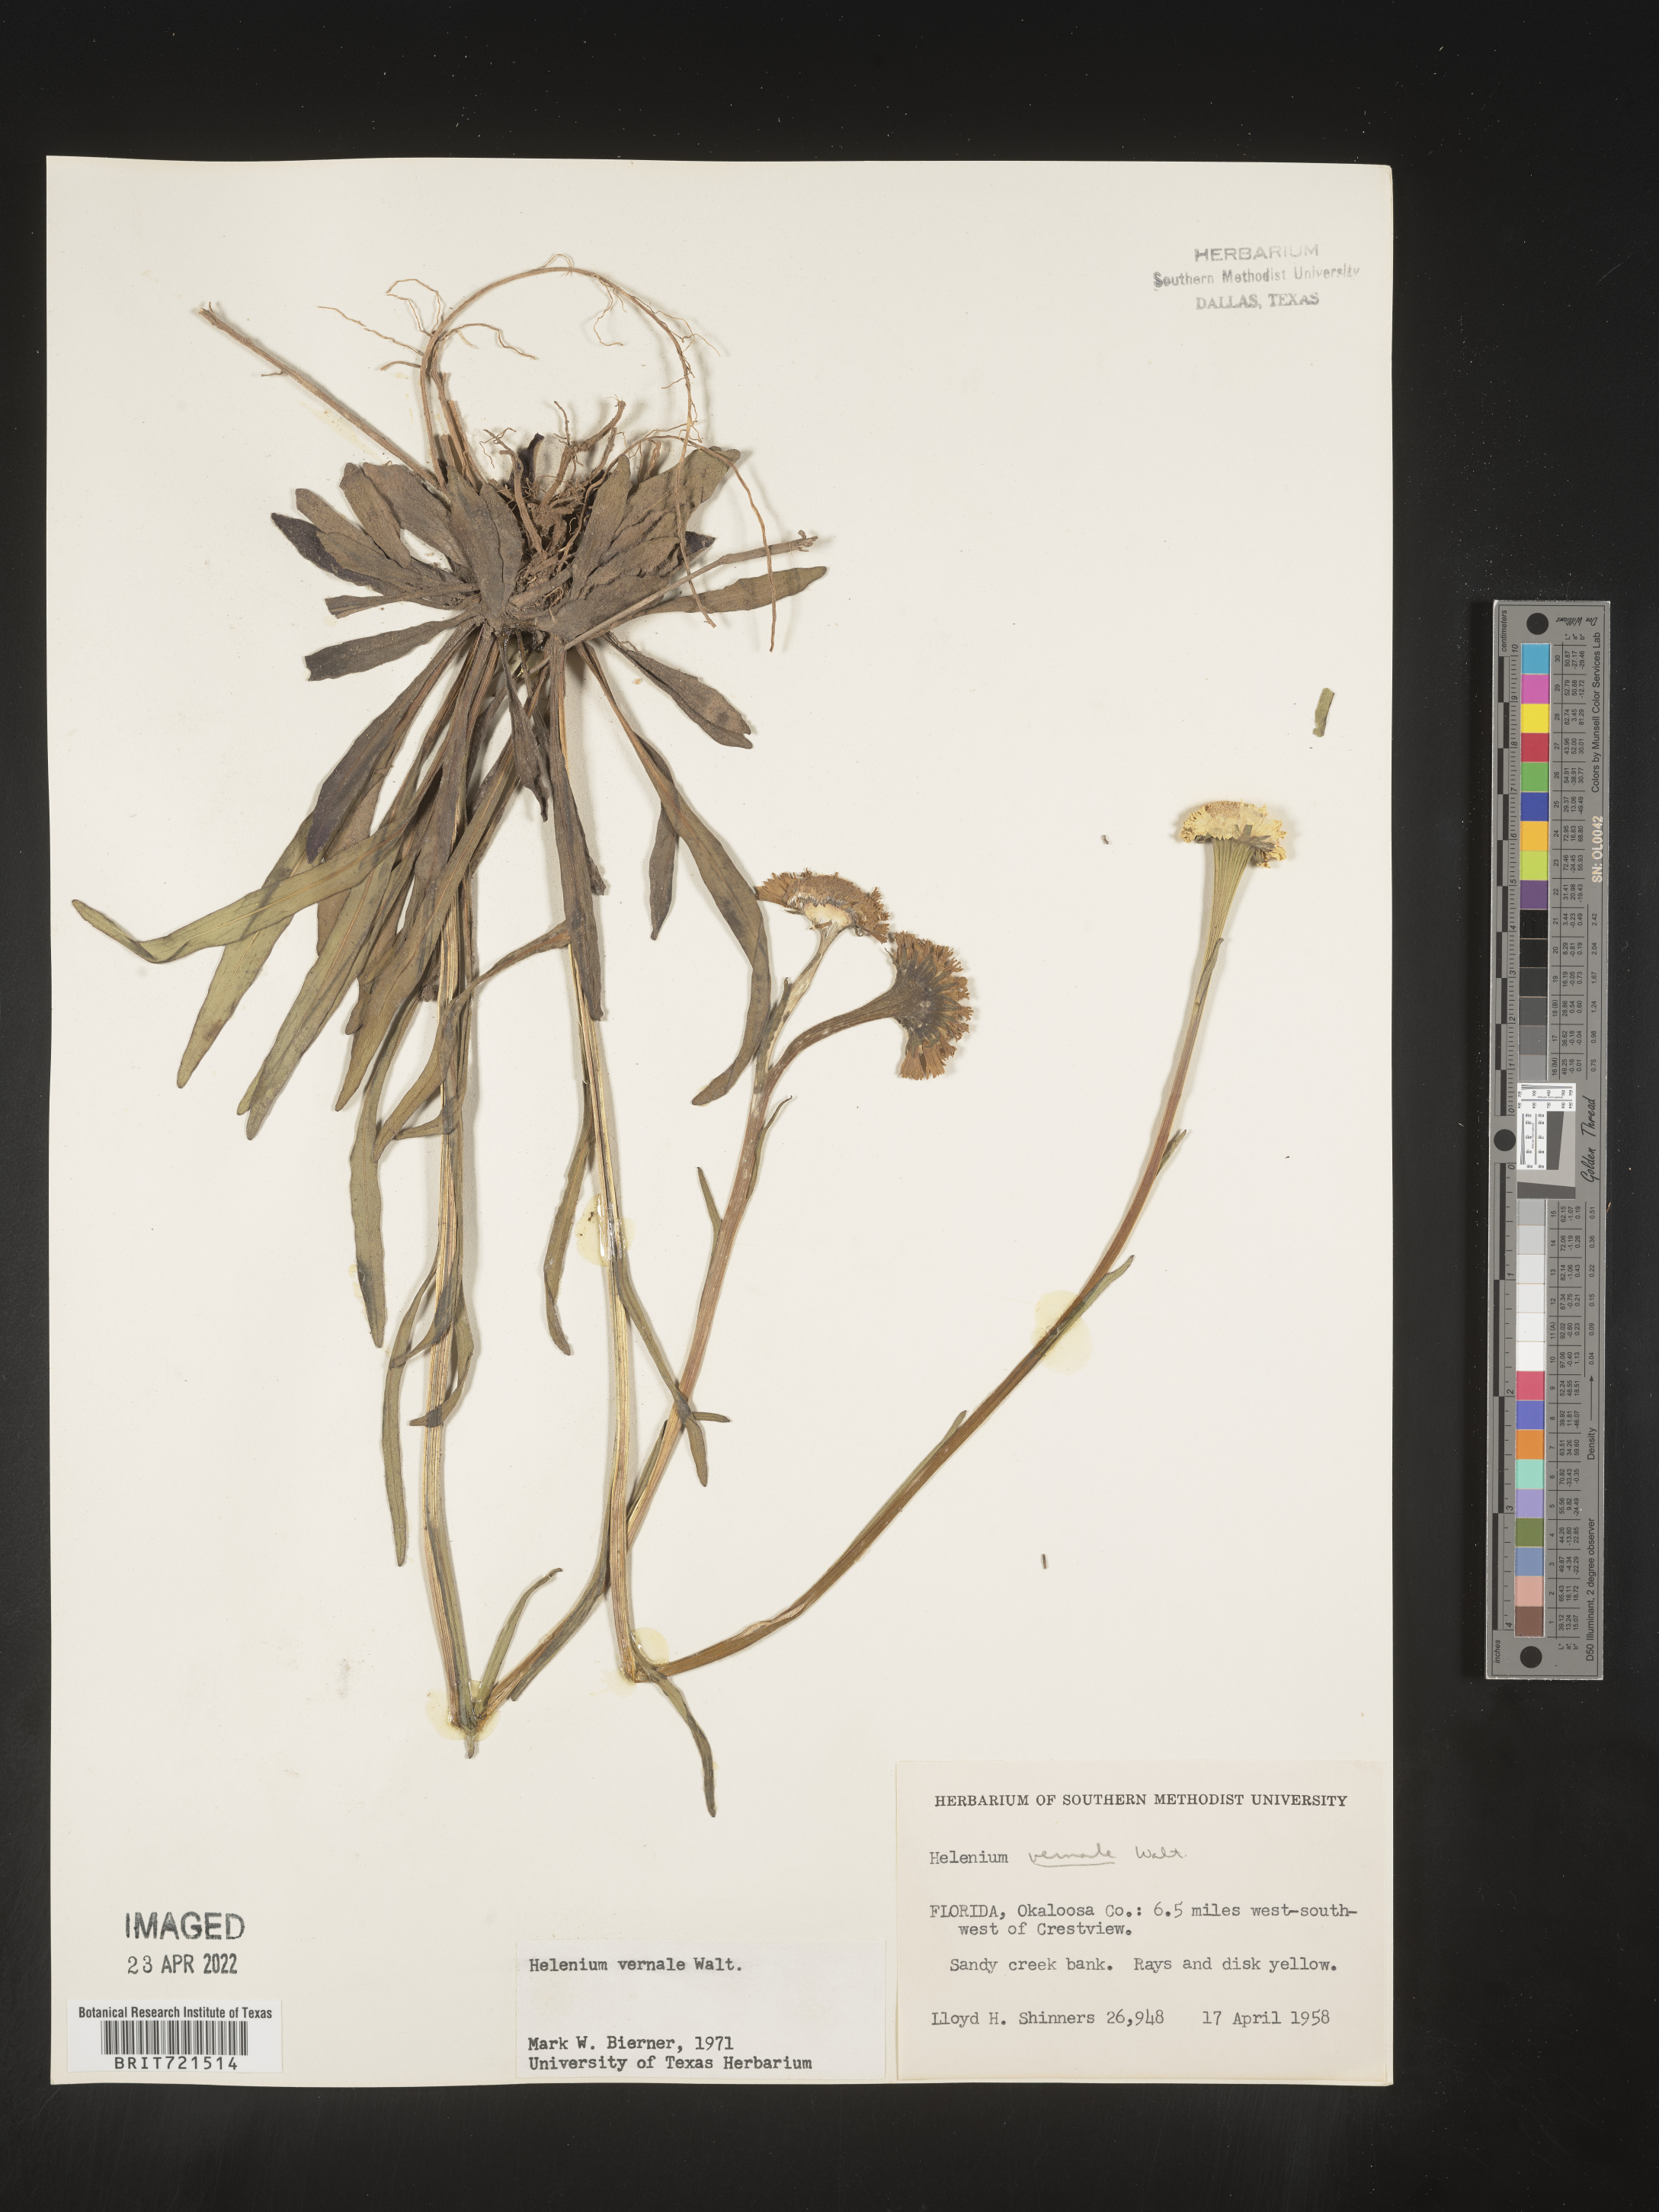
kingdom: Plantae
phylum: Tracheophyta
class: Magnoliopsida
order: Asterales
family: Asteraceae
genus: Helenium
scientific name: Helenium vernale
